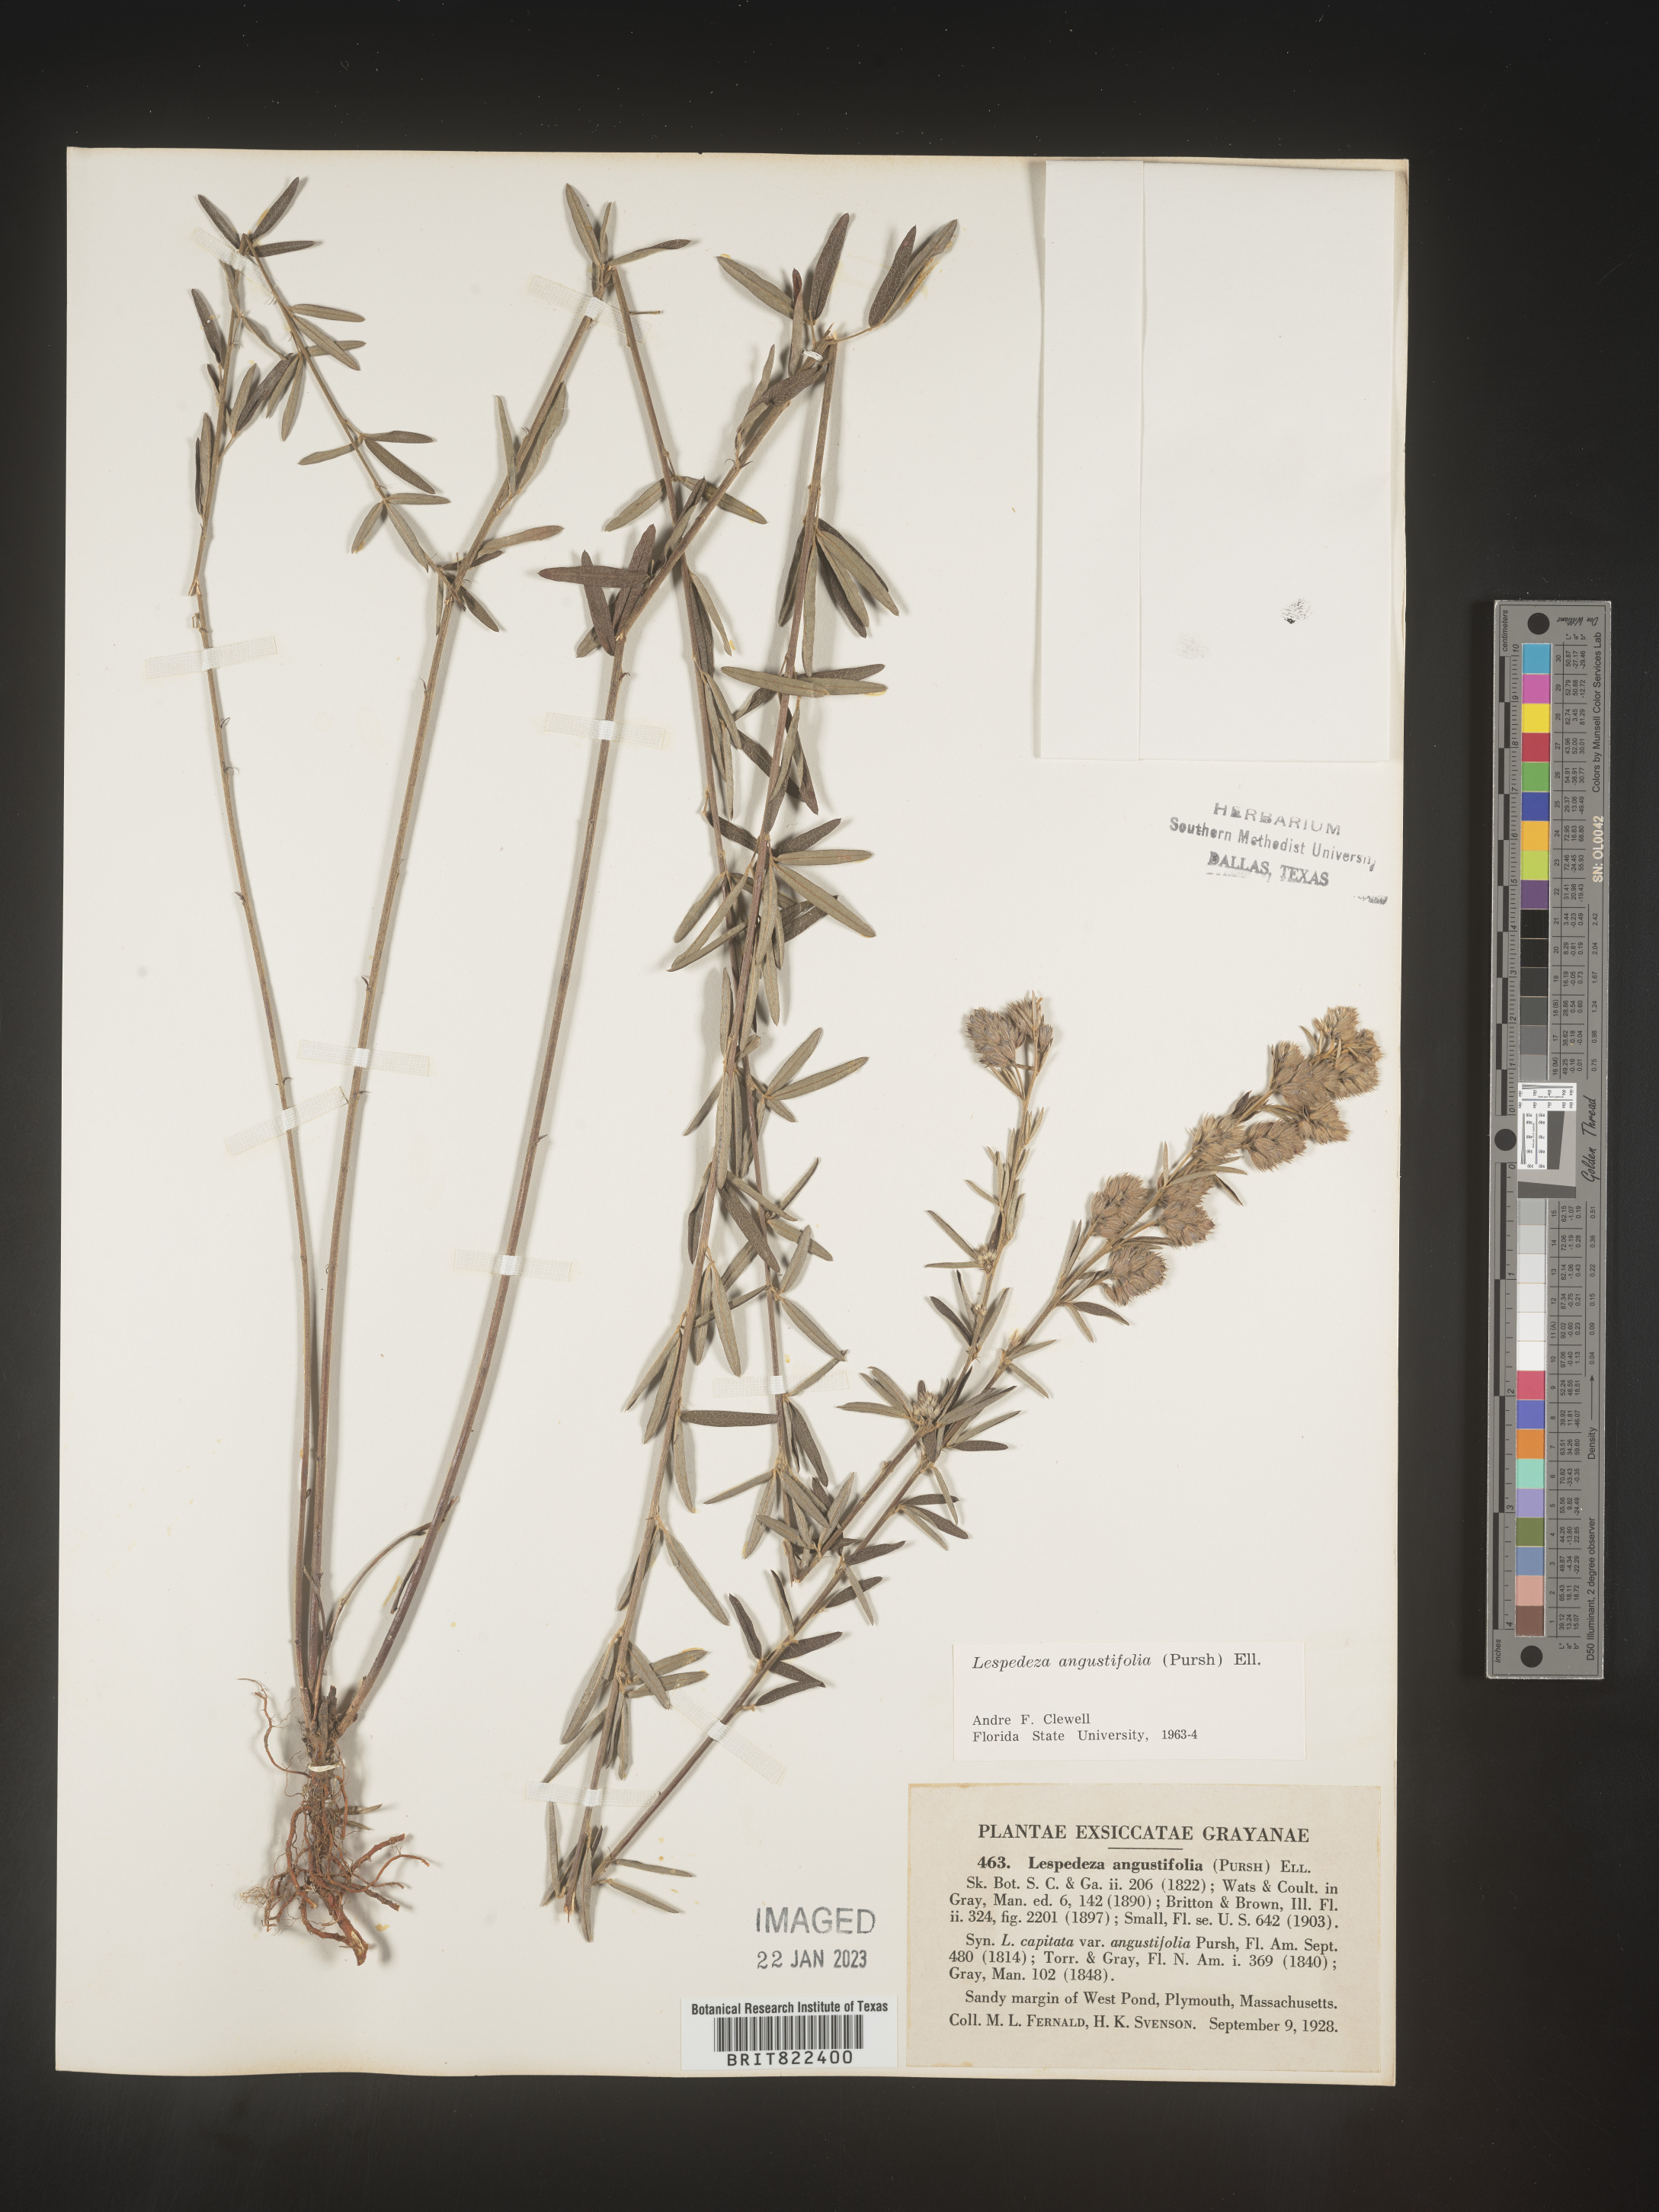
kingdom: Plantae
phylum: Tracheophyta
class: Magnoliopsida
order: Fabales
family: Fabaceae
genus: Lespedeza
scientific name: Lespedeza
